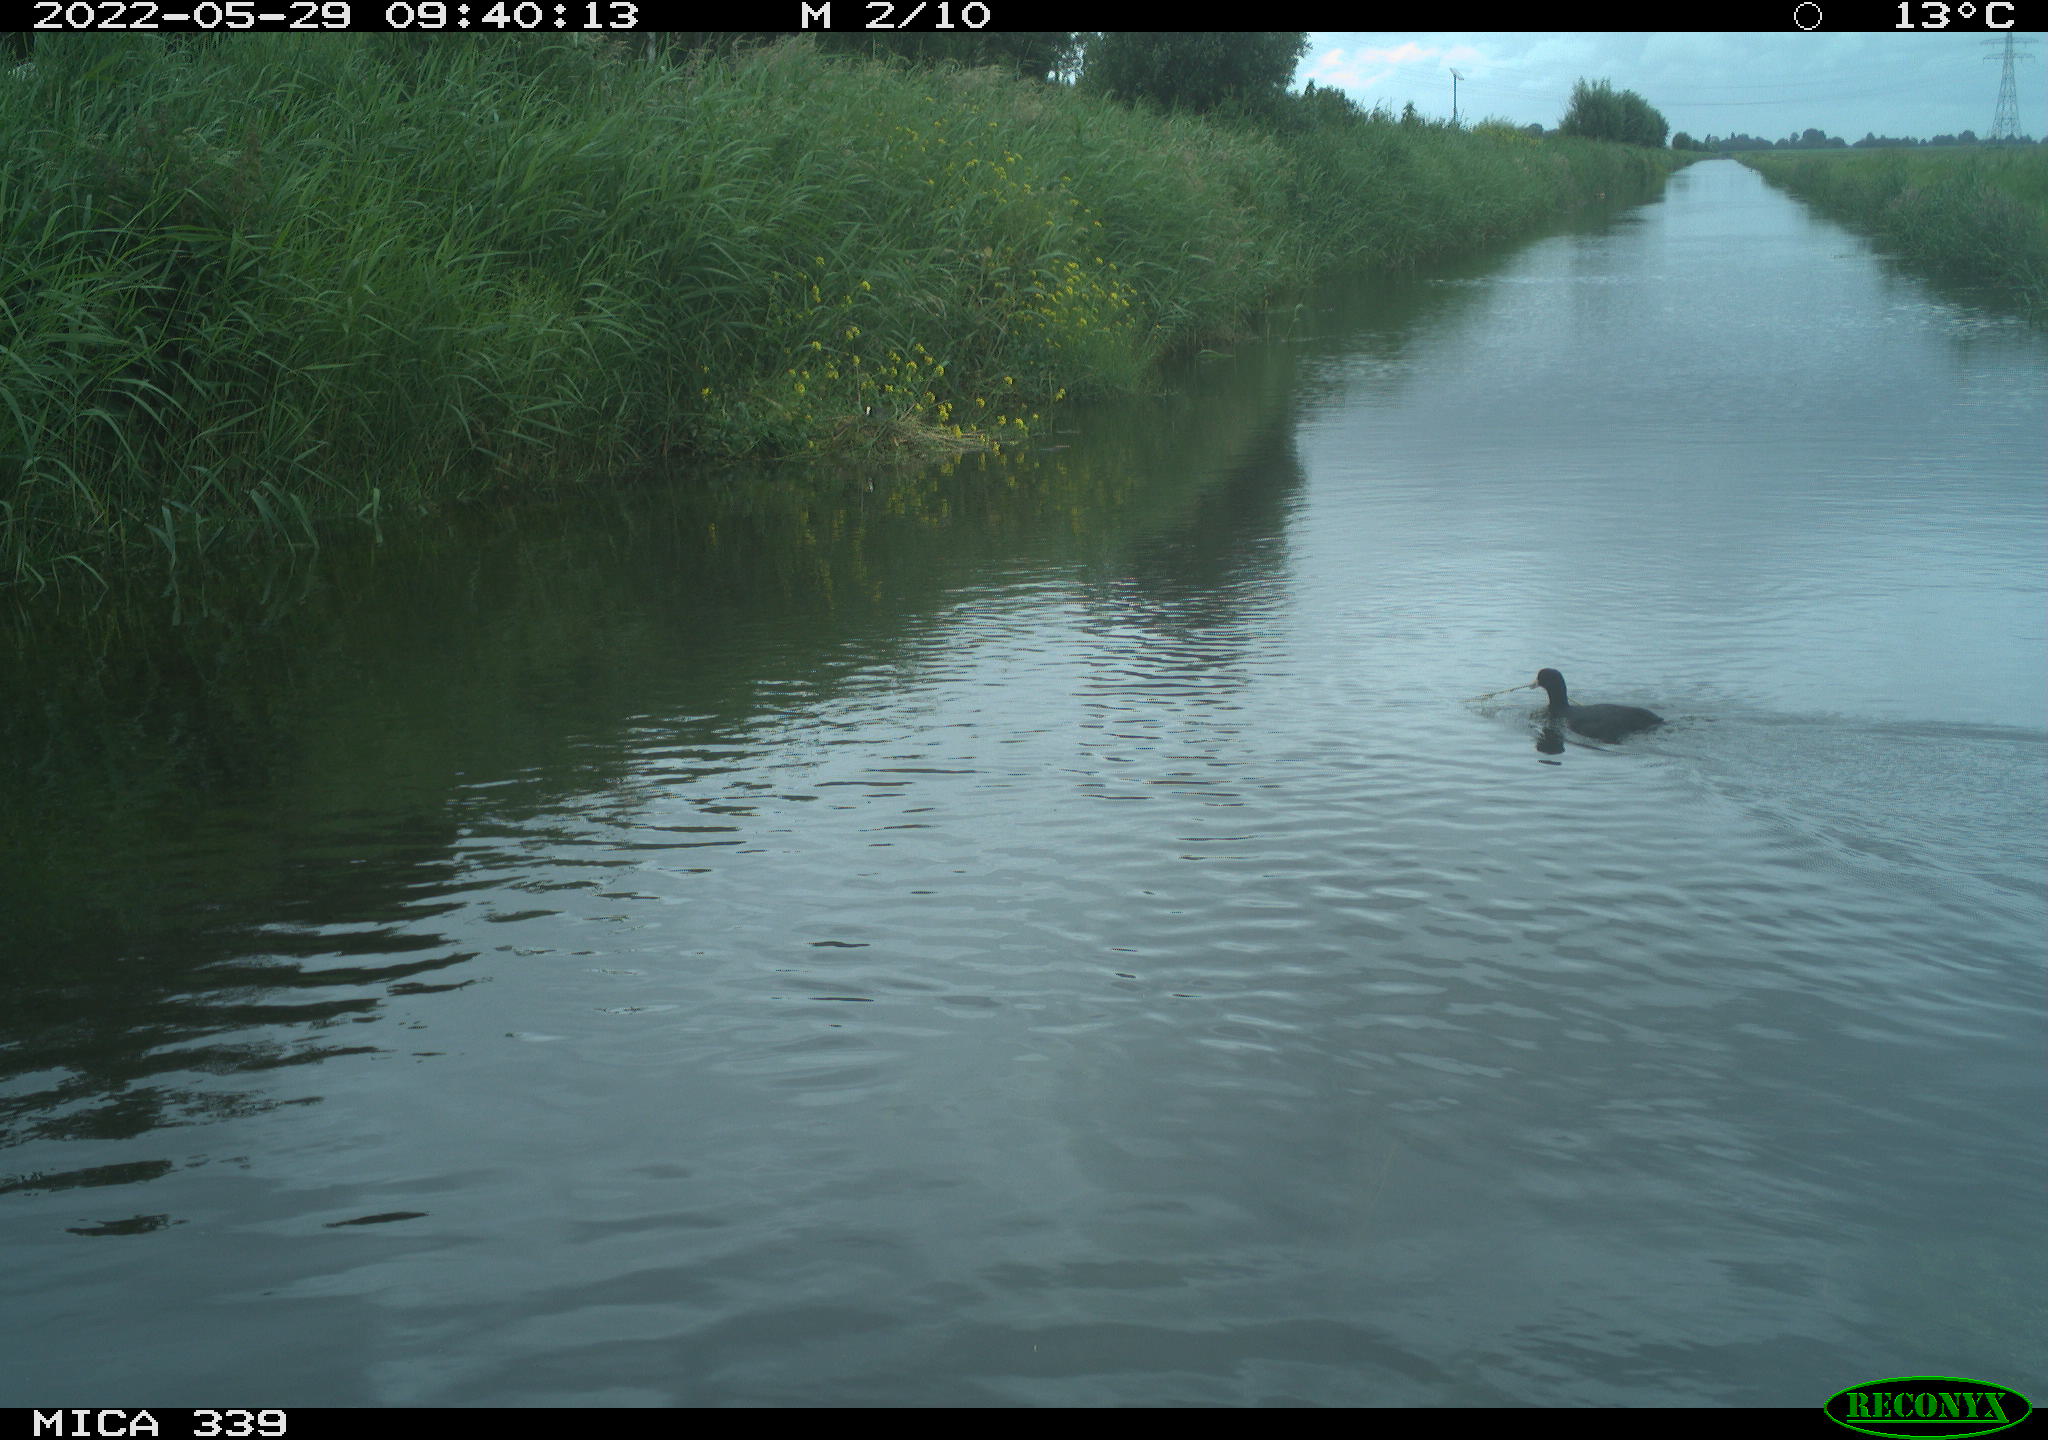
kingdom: Animalia
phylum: Chordata
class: Aves
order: Gruiformes
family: Rallidae
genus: Fulica
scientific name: Fulica atra
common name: Eurasian coot
